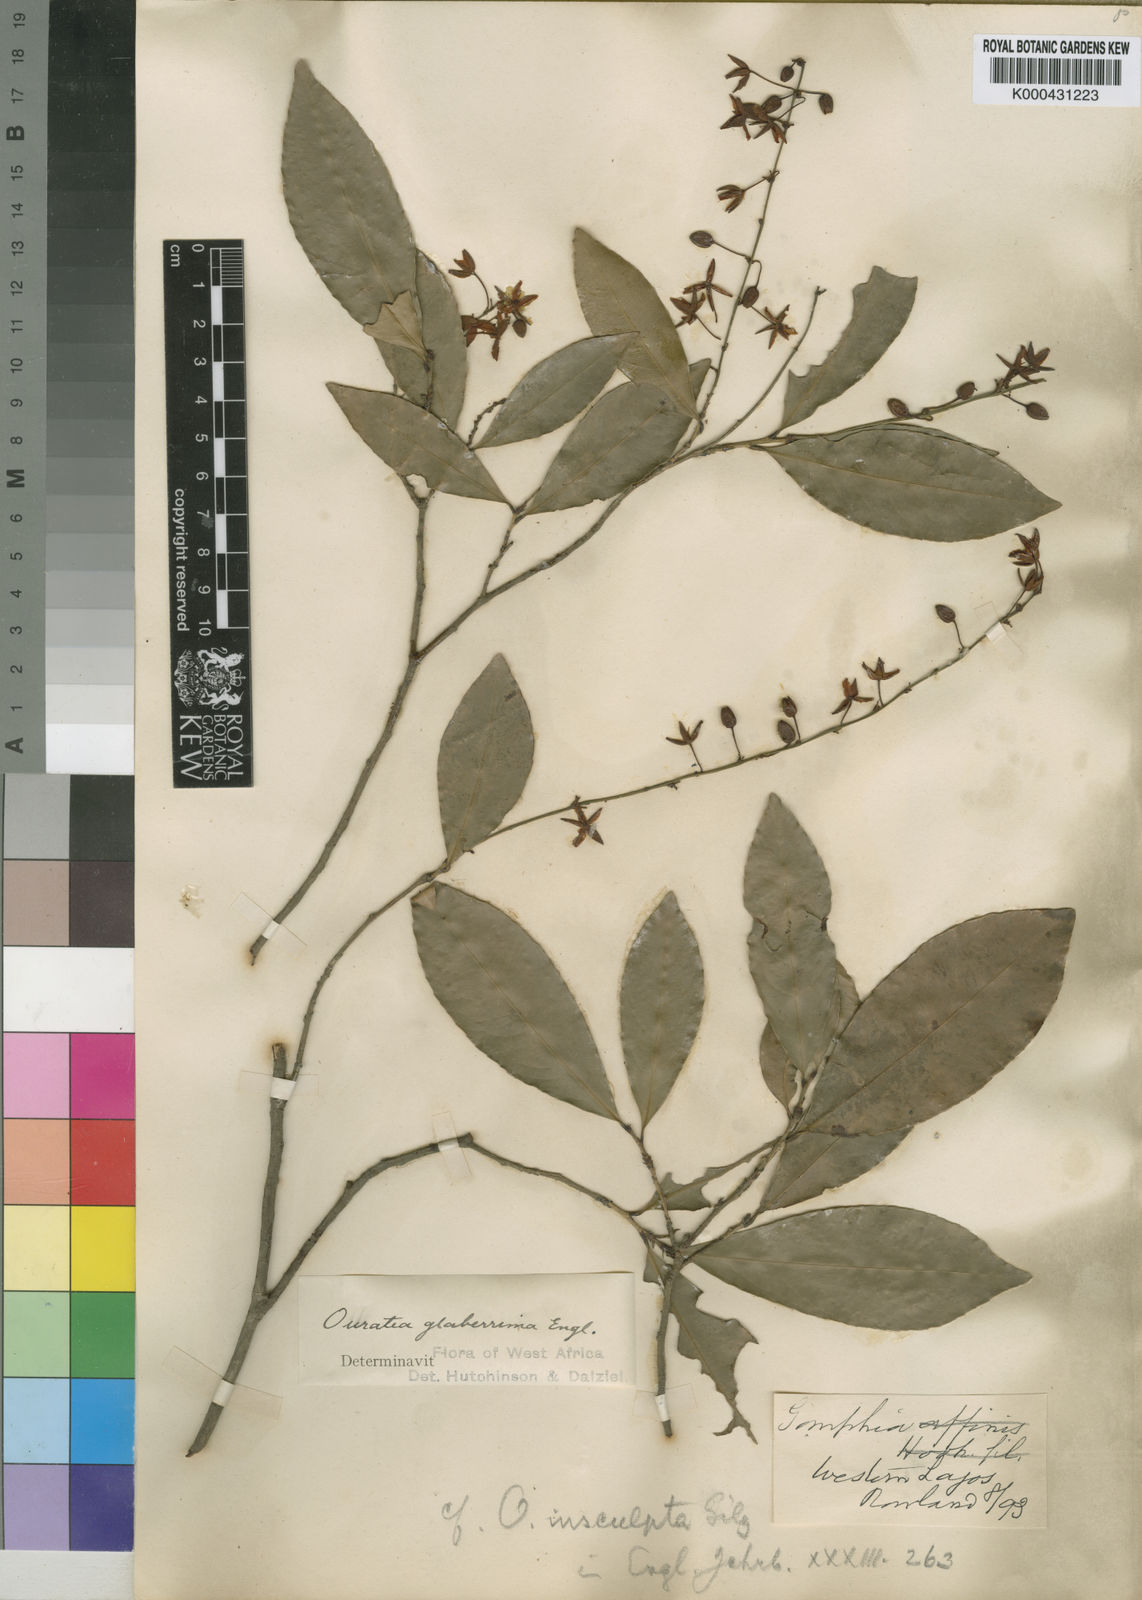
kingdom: Plantae
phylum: Tracheophyta
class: Magnoliopsida
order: Malpighiales
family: Ochnaceae
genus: Campylospermum
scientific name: Campylospermum glaberrimum
